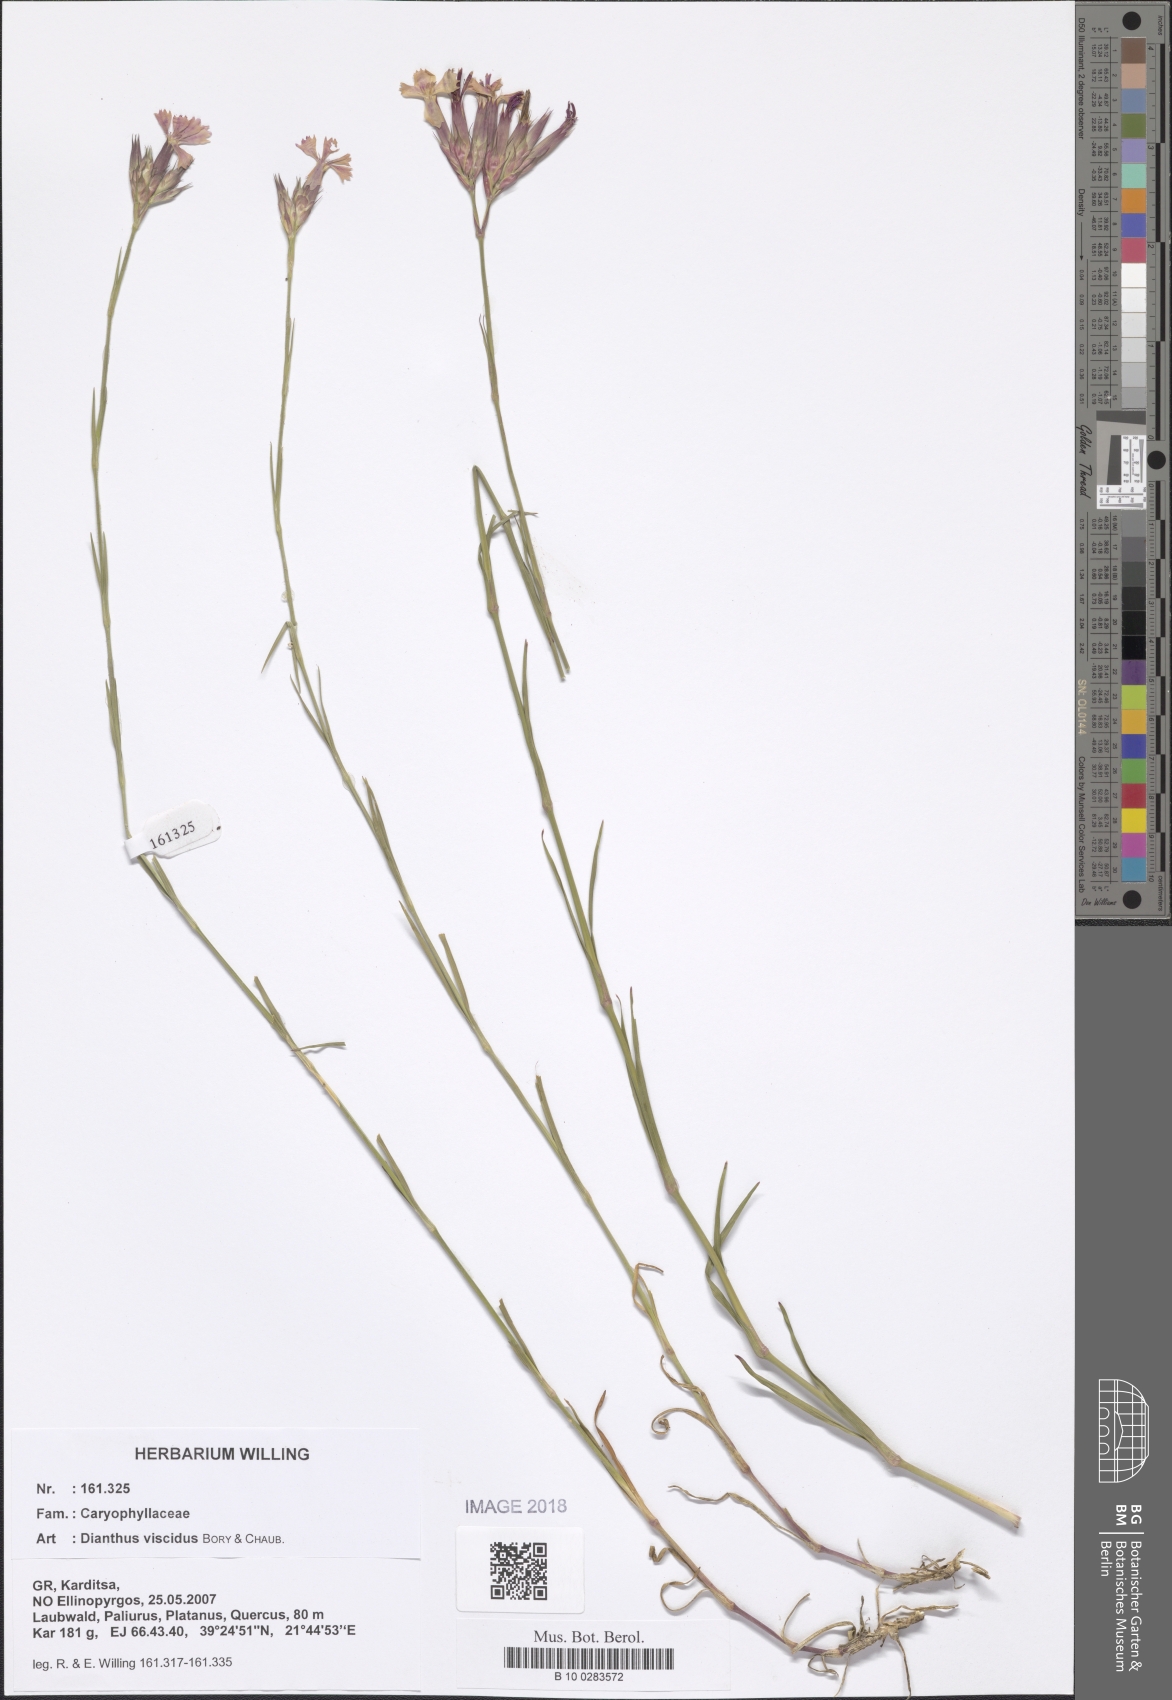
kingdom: Plantae
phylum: Tracheophyta
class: Magnoliopsida
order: Caryophyllales
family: Caryophyllaceae
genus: Dianthus
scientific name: Dianthus viscidus
